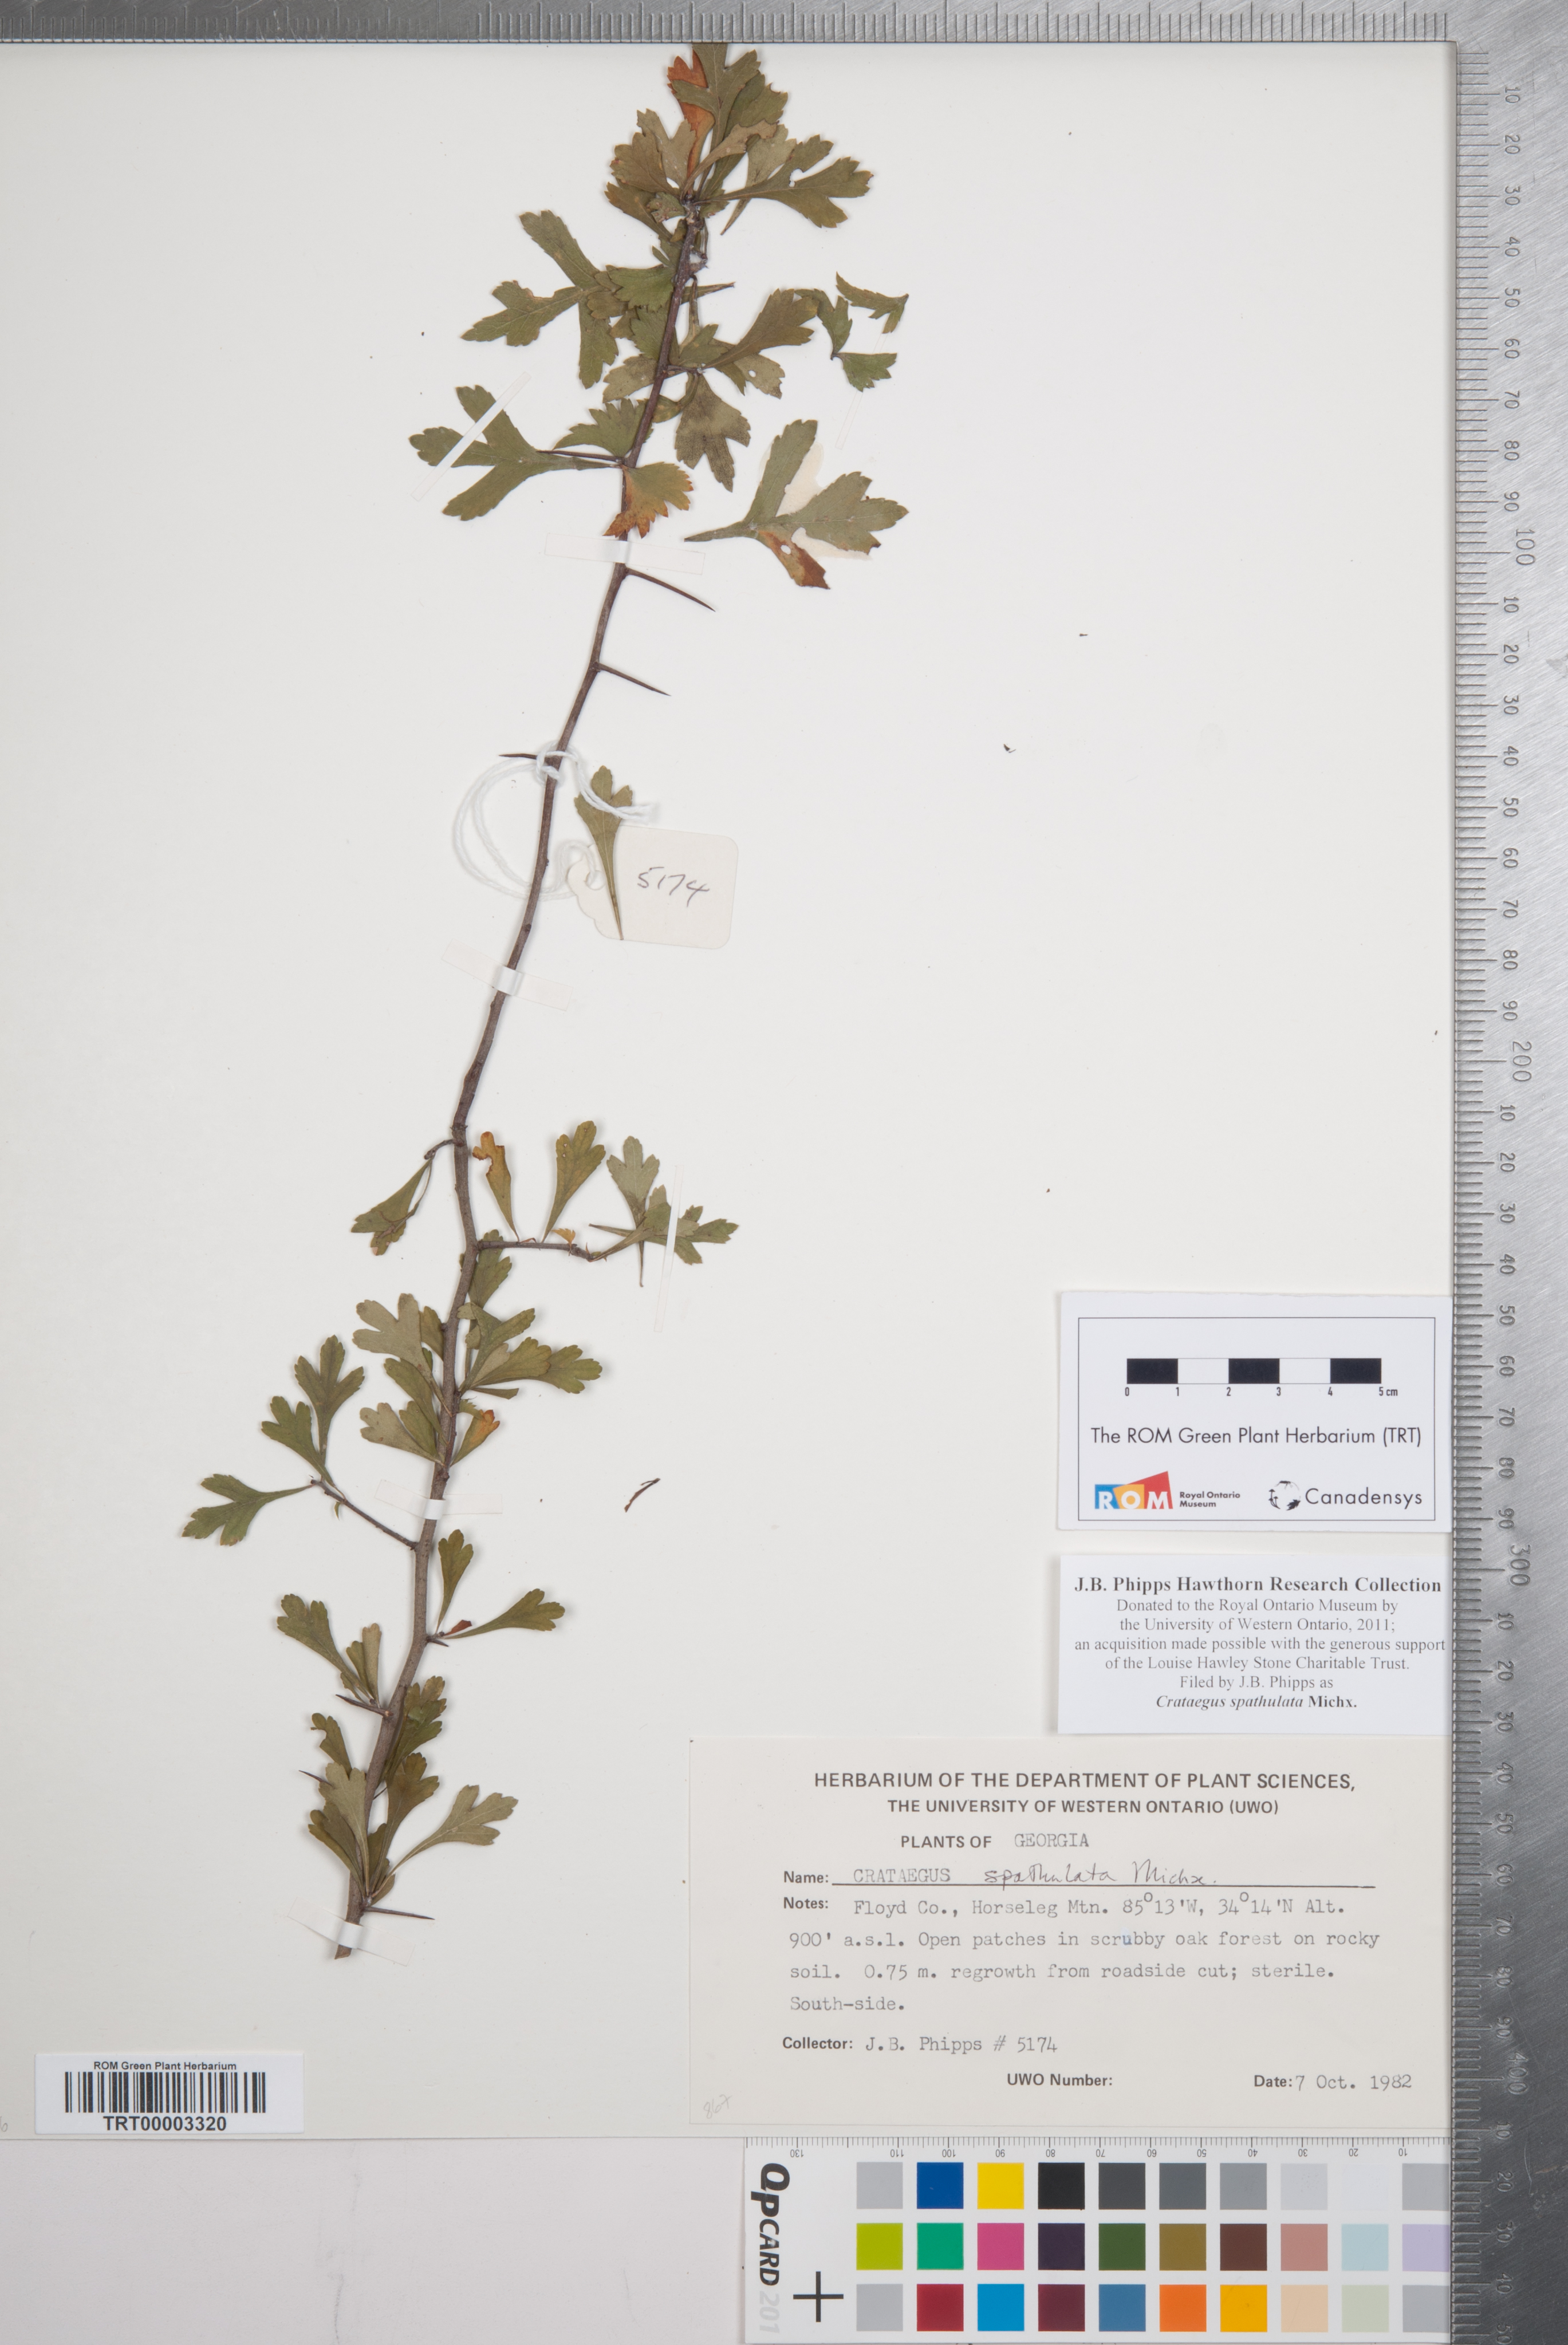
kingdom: Plantae
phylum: Tracheophyta
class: Magnoliopsida
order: Rosales
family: Rosaceae
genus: Crataegus
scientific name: Crataegus spathulata
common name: Littlehip hawthorn
